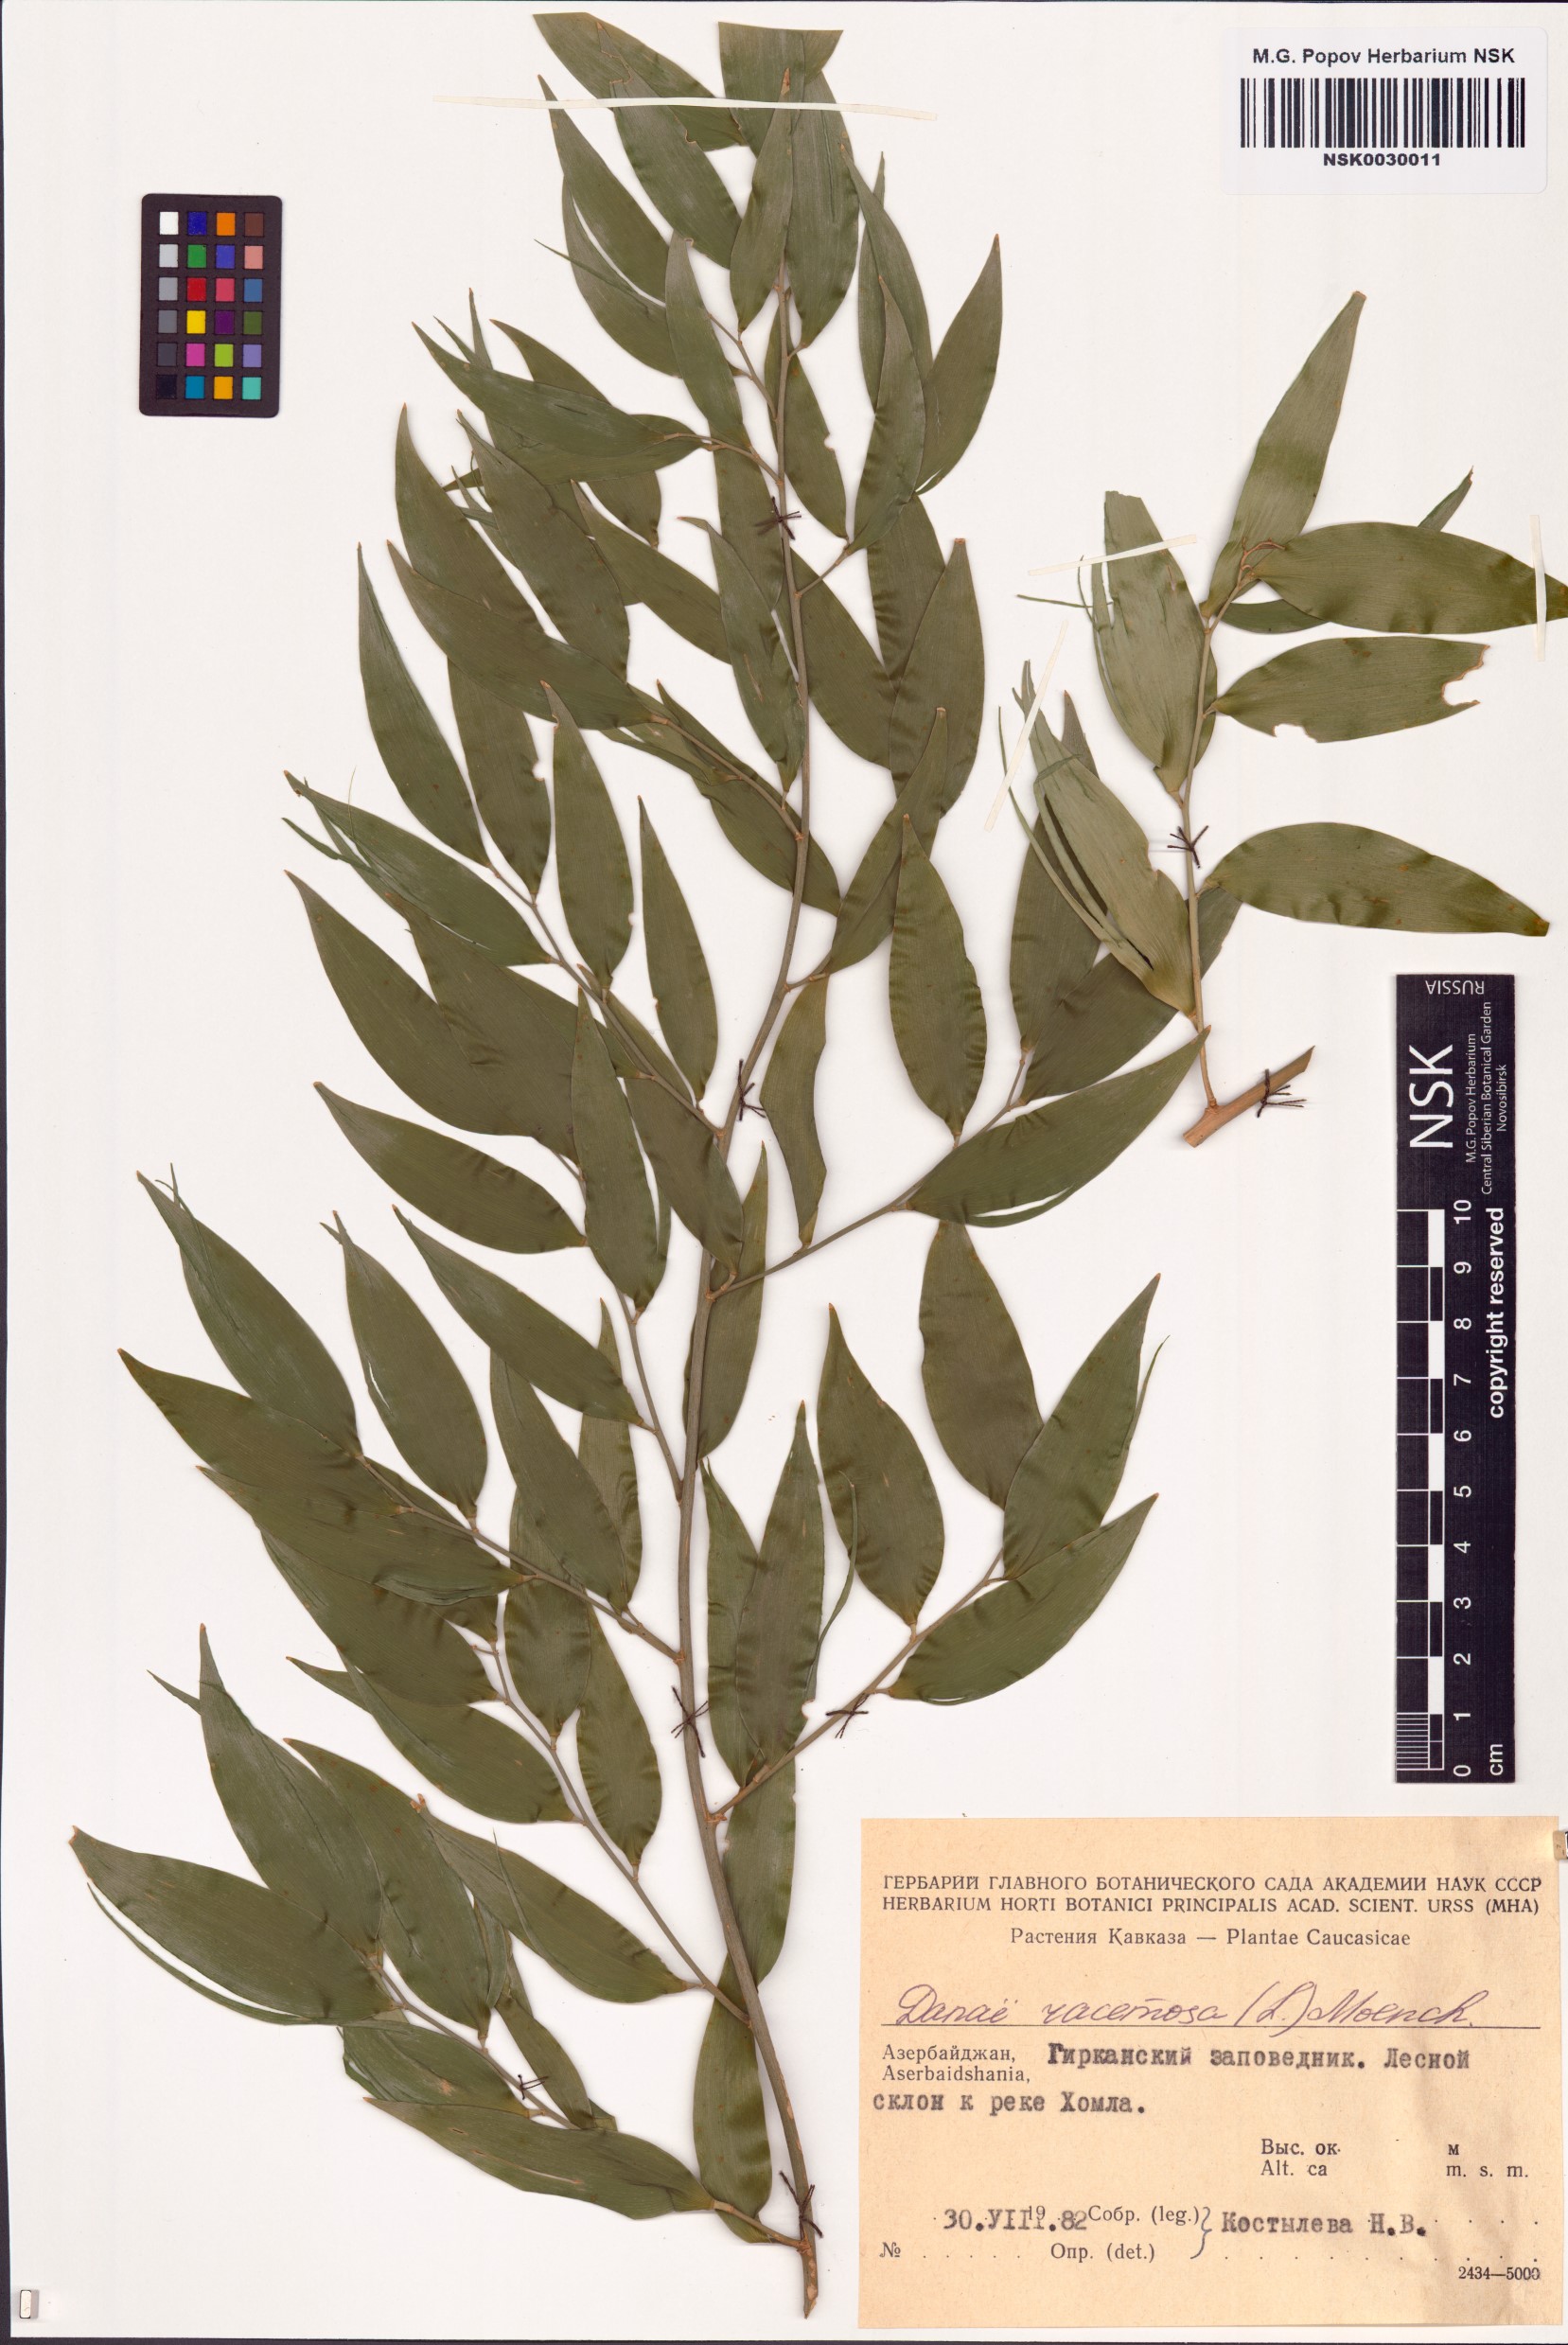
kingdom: Plantae
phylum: Tracheophyta
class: Liliopsida
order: Asparagales
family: Asparagaceae
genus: Danae
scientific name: Danae racemosa
